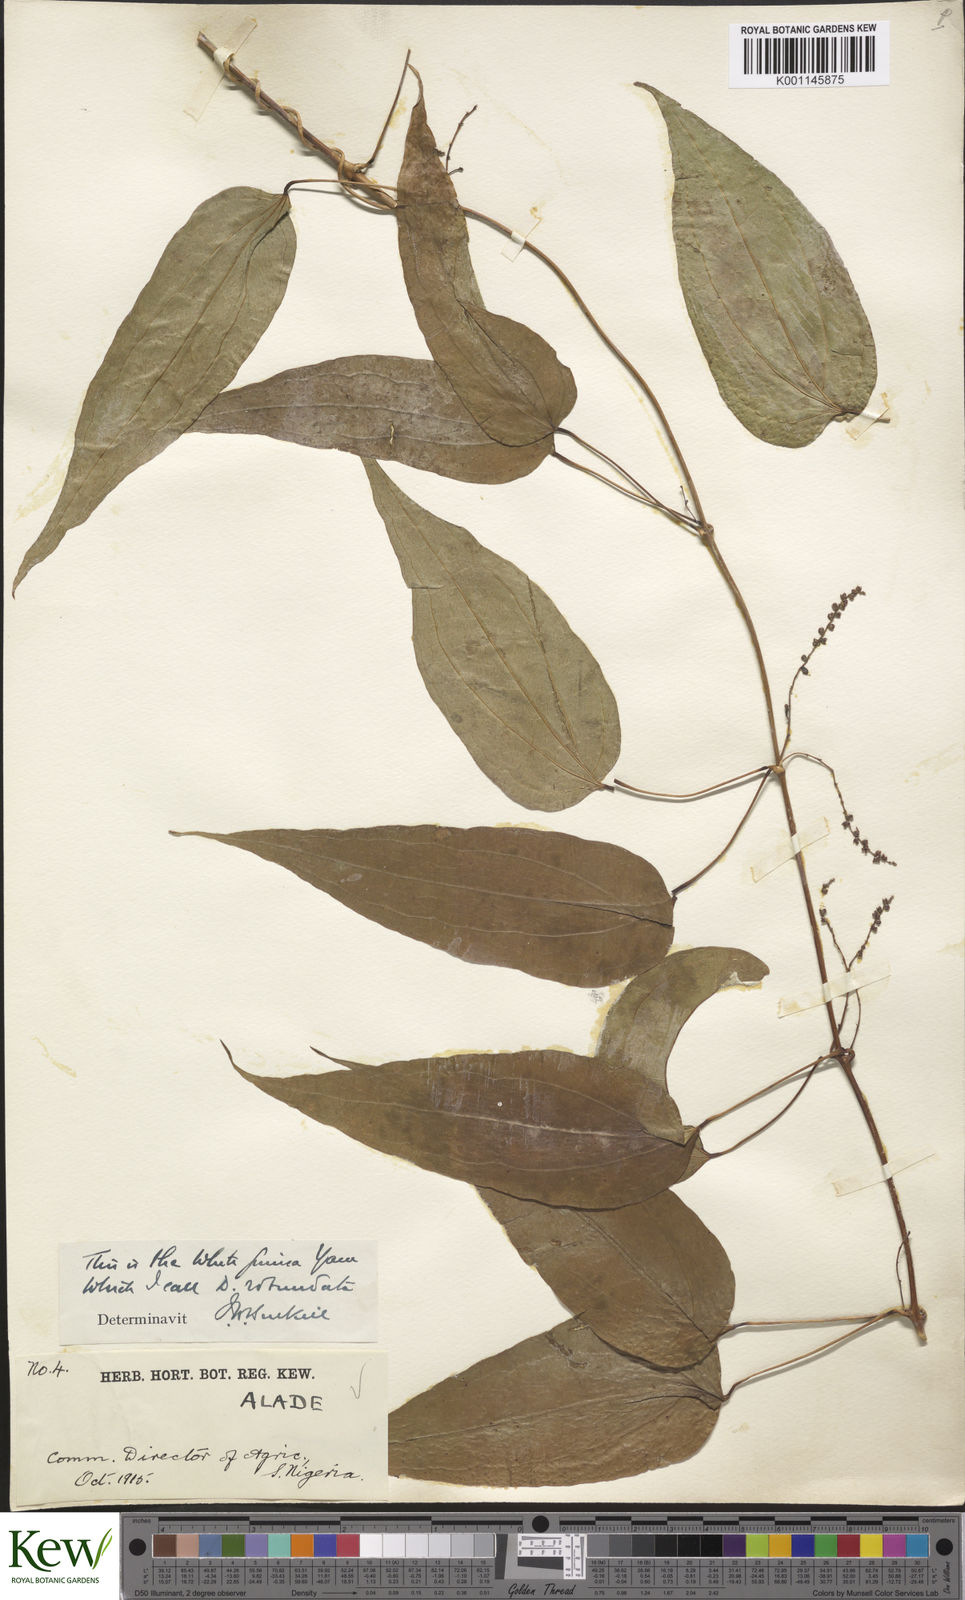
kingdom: Plantae
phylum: Tracheophyta
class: Liliopsida
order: Dioscoreales
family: Dioscoreaceae
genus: Dioscorea
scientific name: Dioscorea cayenensis
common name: Attoto yam
